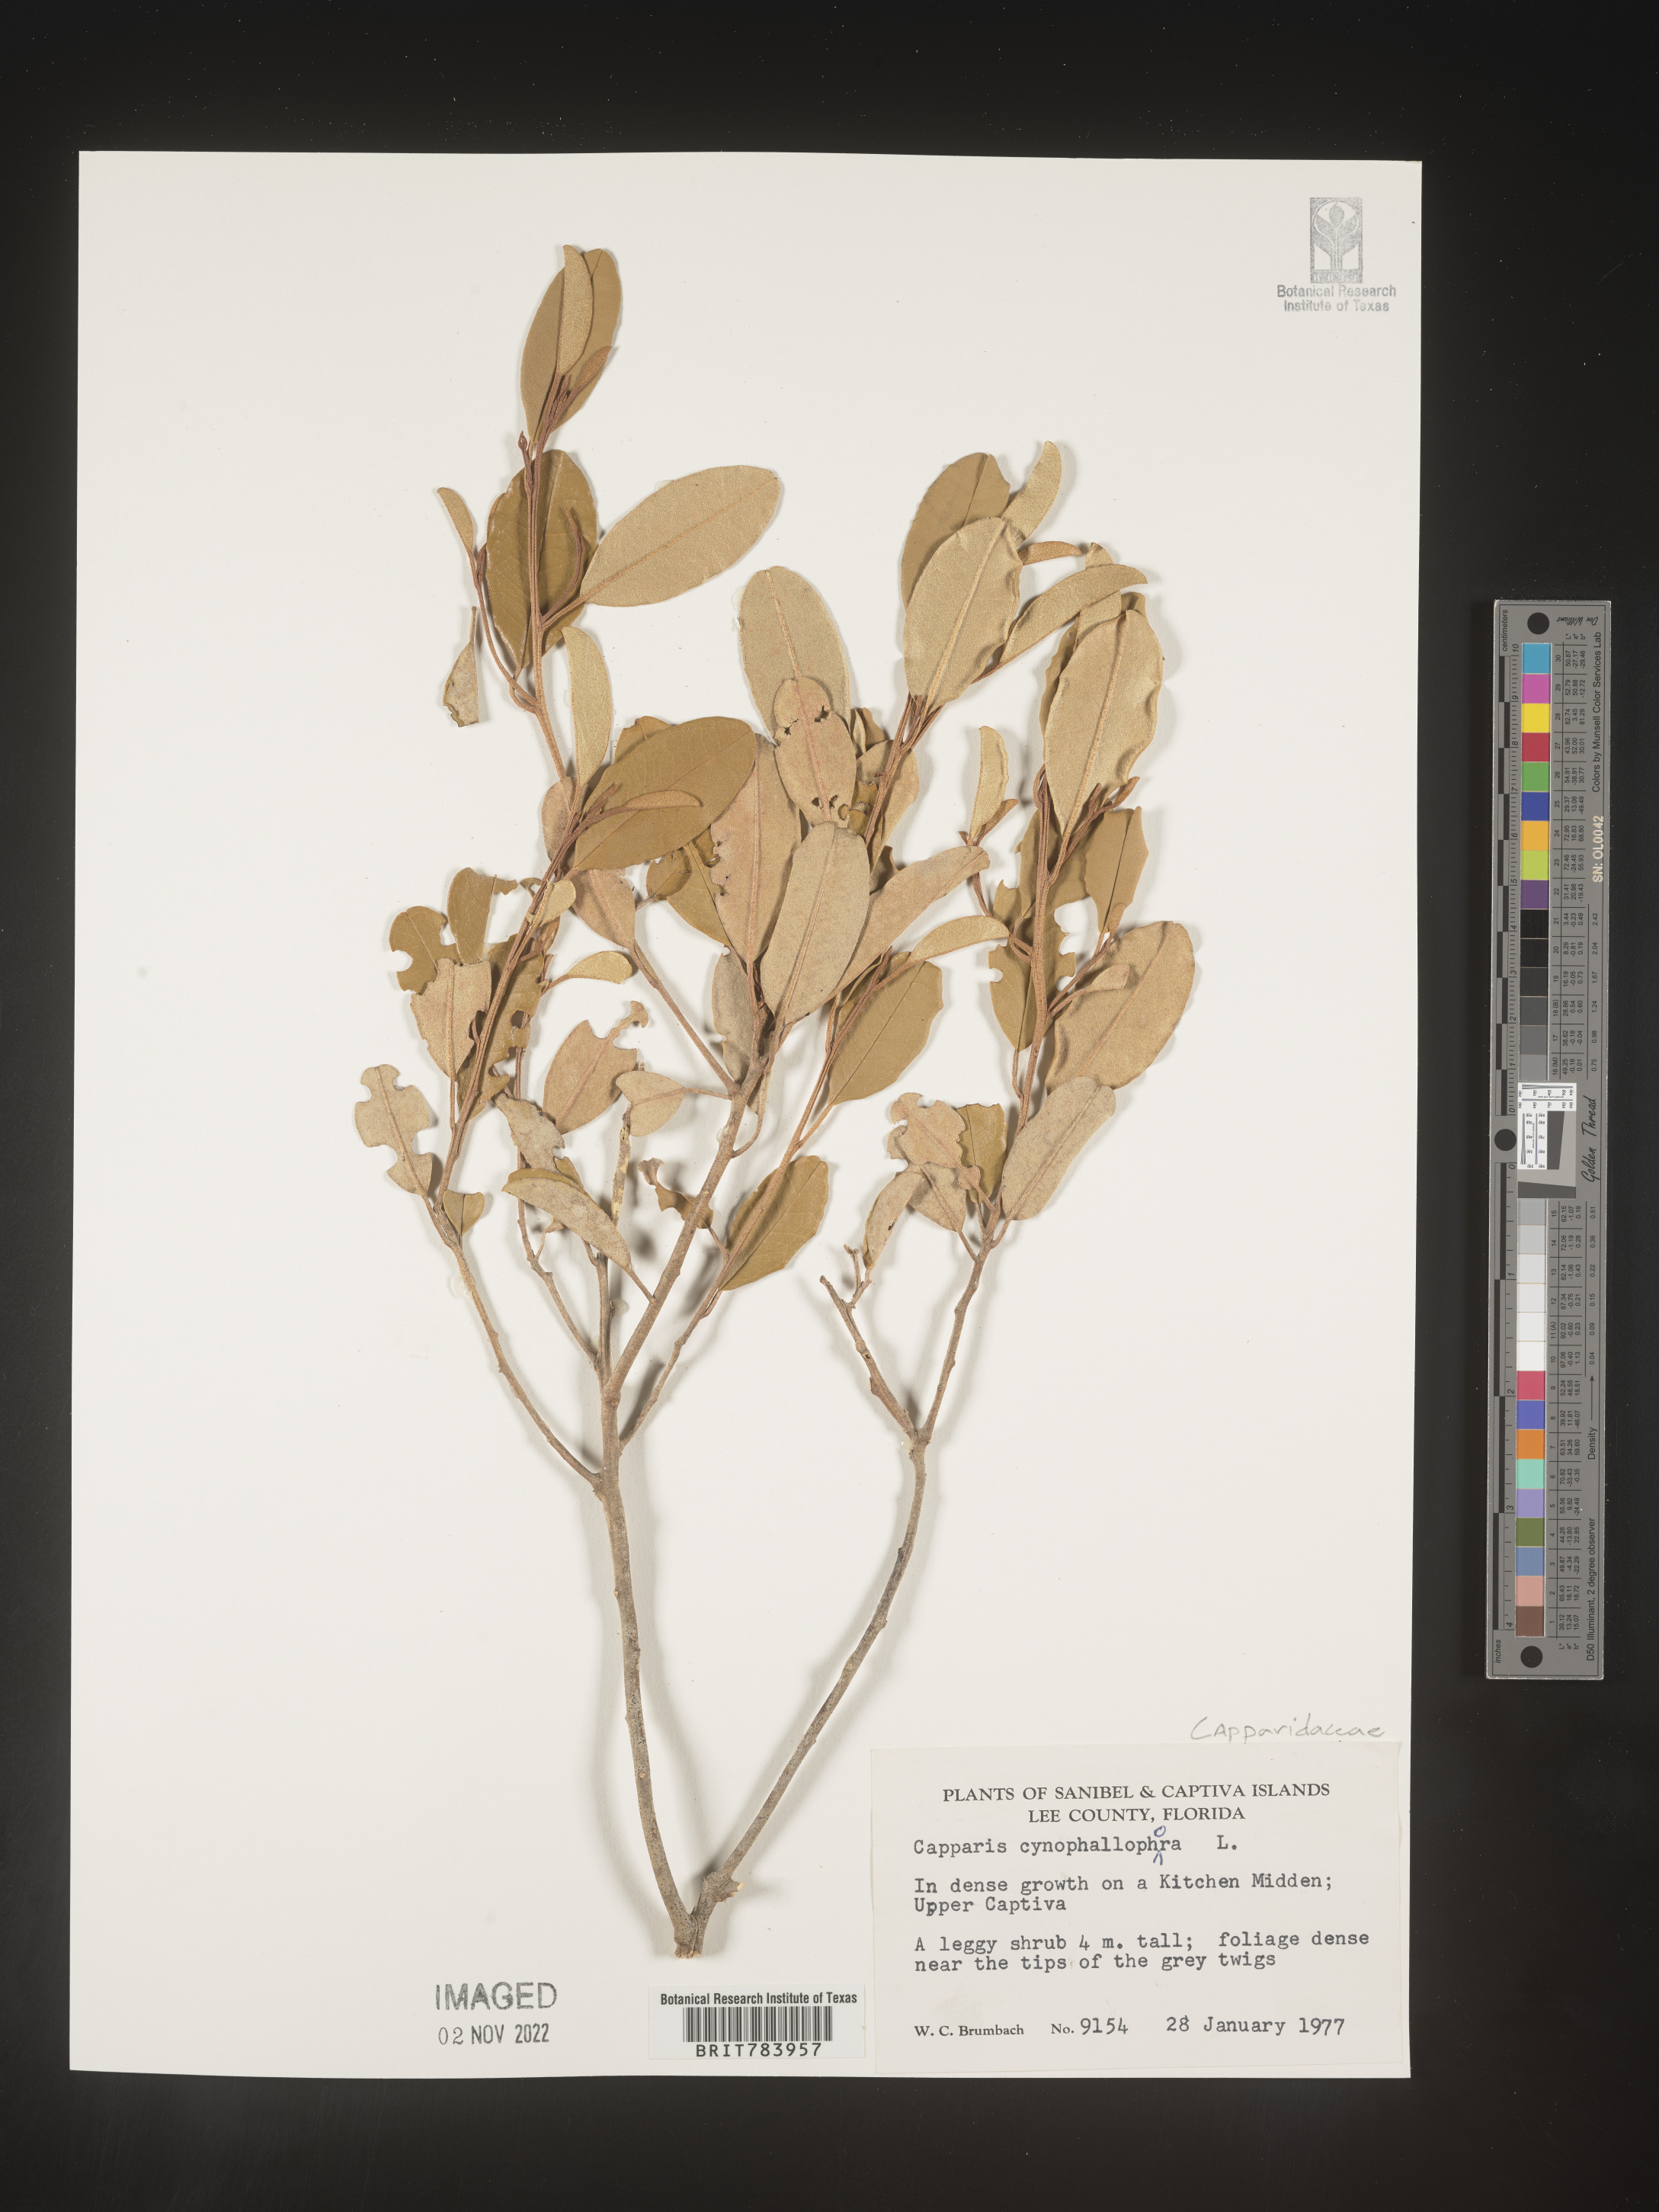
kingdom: Plantae
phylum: Tracheophyta
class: Magnoliopsida
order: Brassicales
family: Capparaceae
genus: Capparis
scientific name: Capparis
